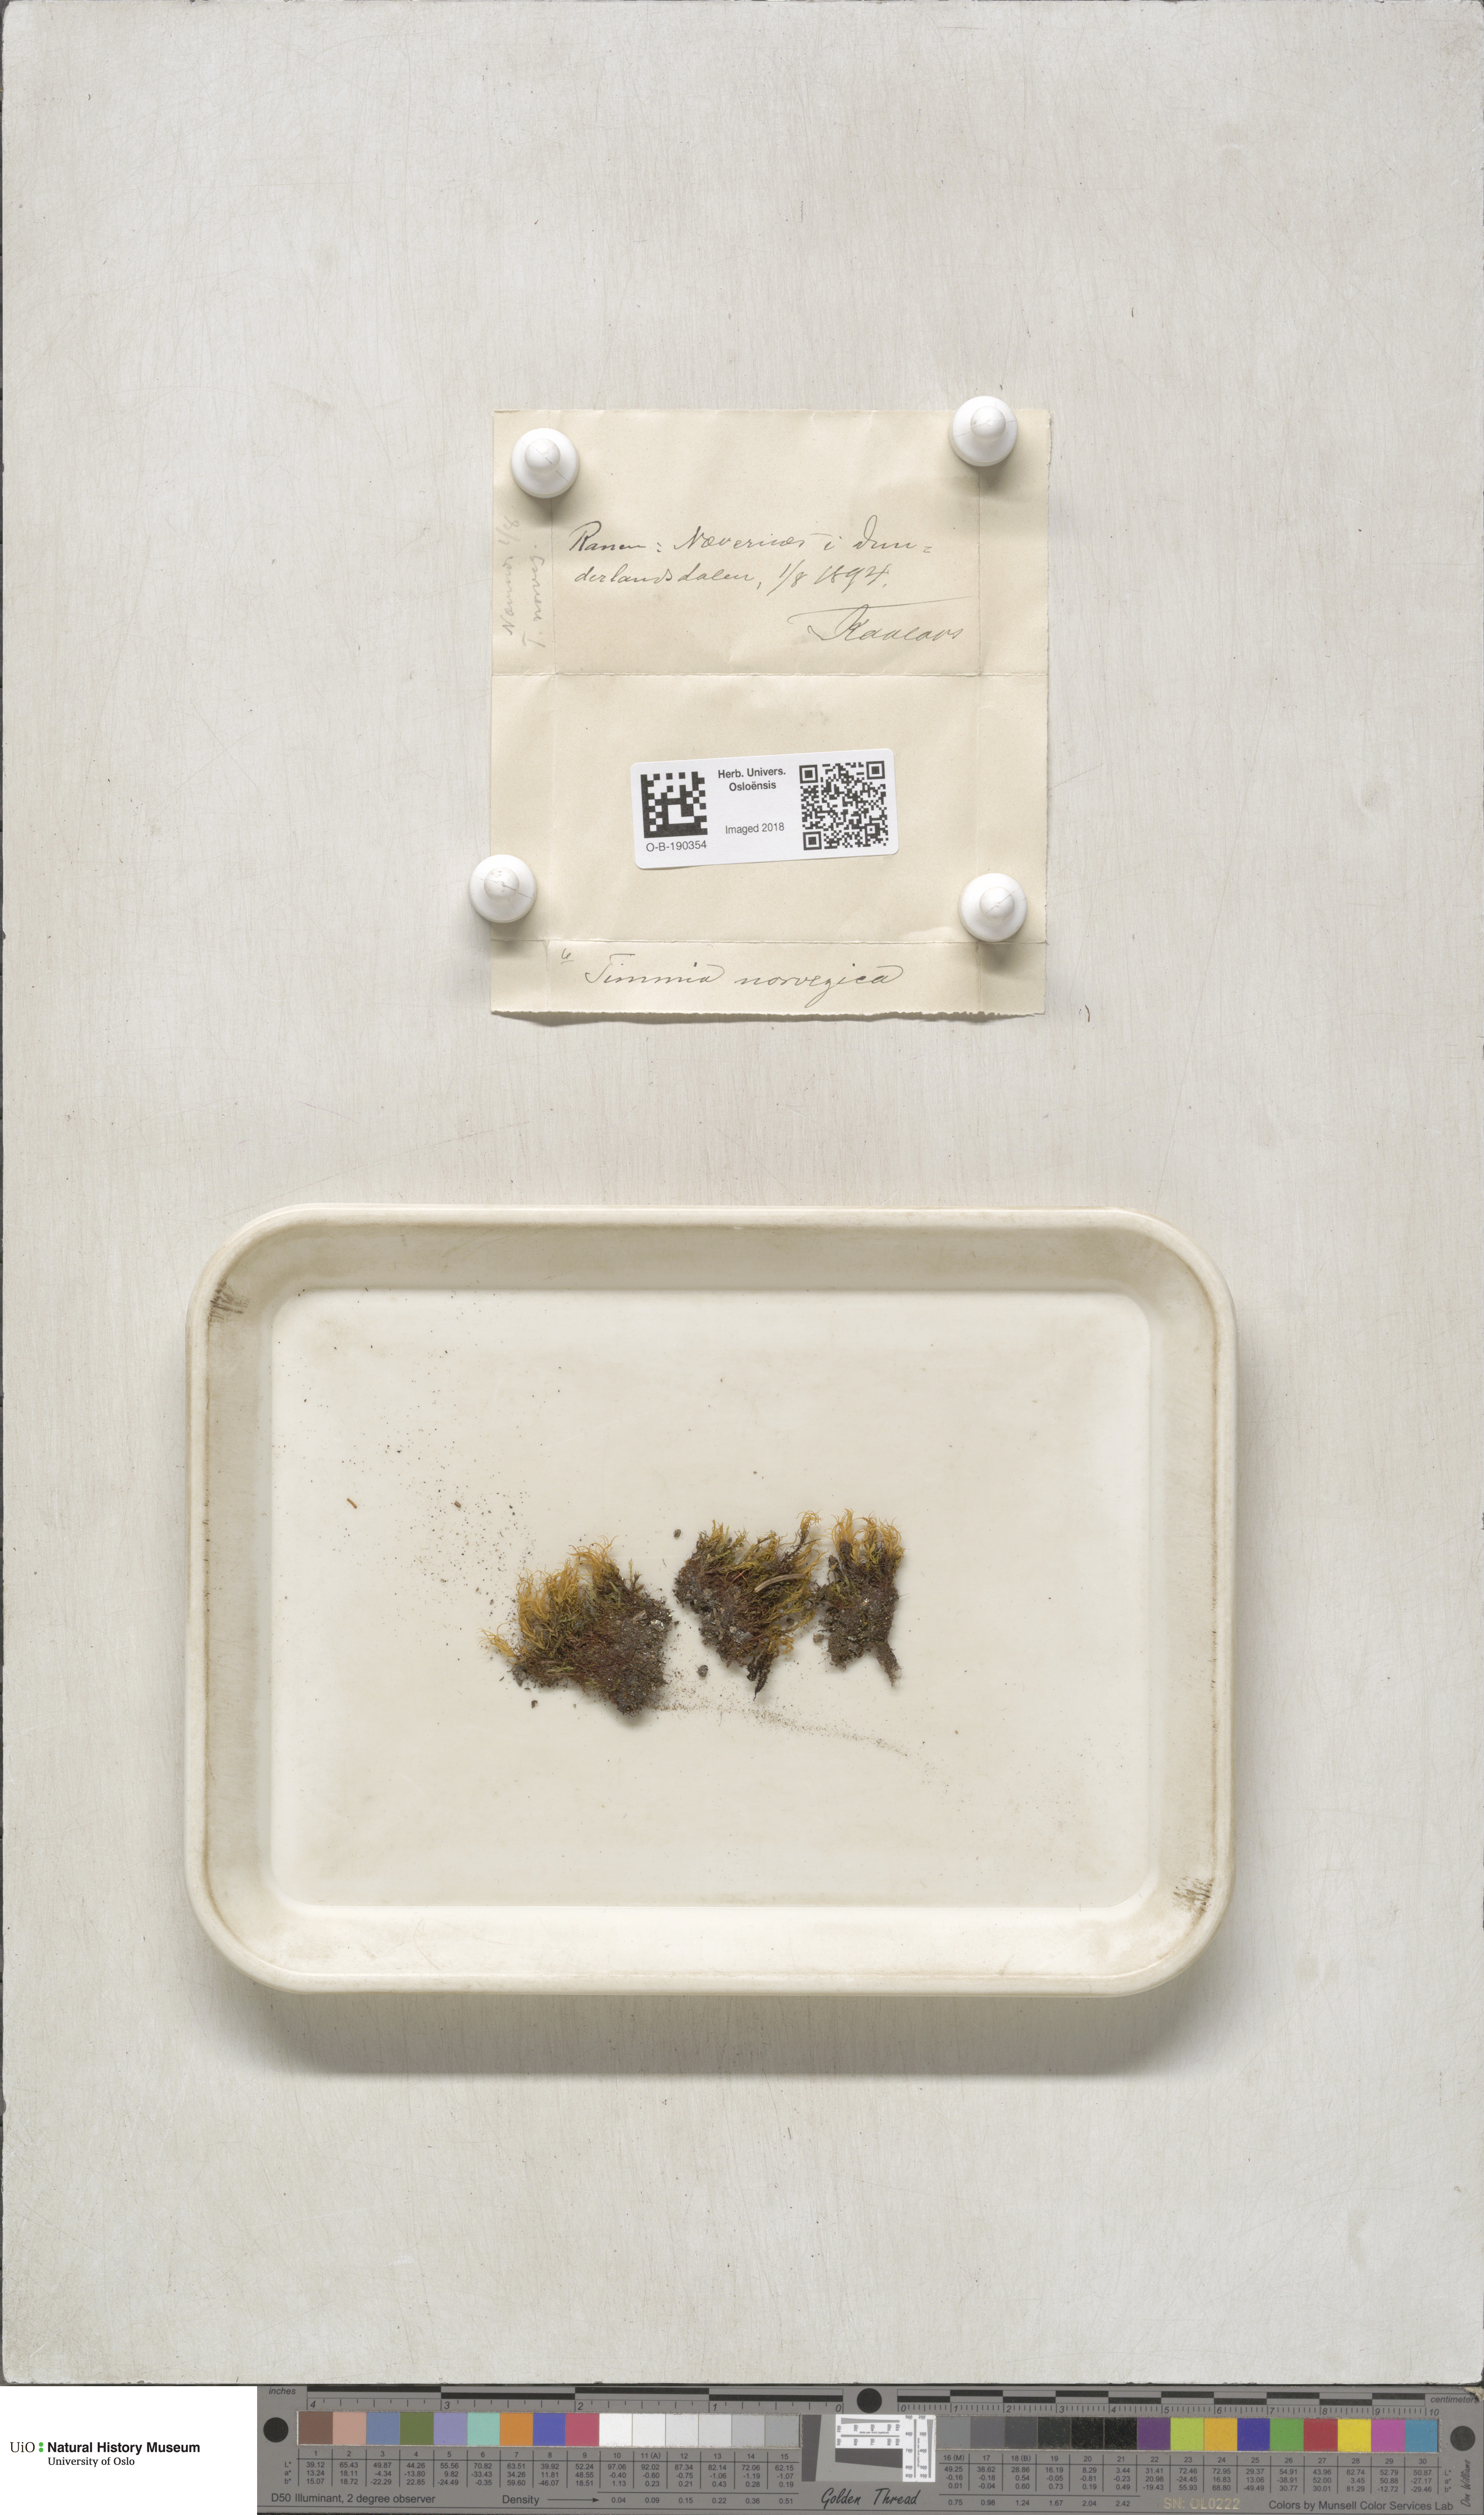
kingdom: Plantae
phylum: Bryophyta
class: Bryopsida
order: Timmiales
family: Timmiaceae
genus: Timmia
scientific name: Timmia norvegica
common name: Norway timmia
